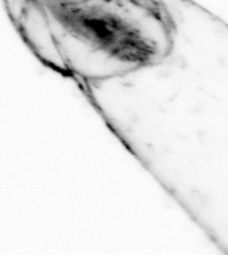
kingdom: Animalia
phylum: Chaetognatha
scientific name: Chaetognatha
